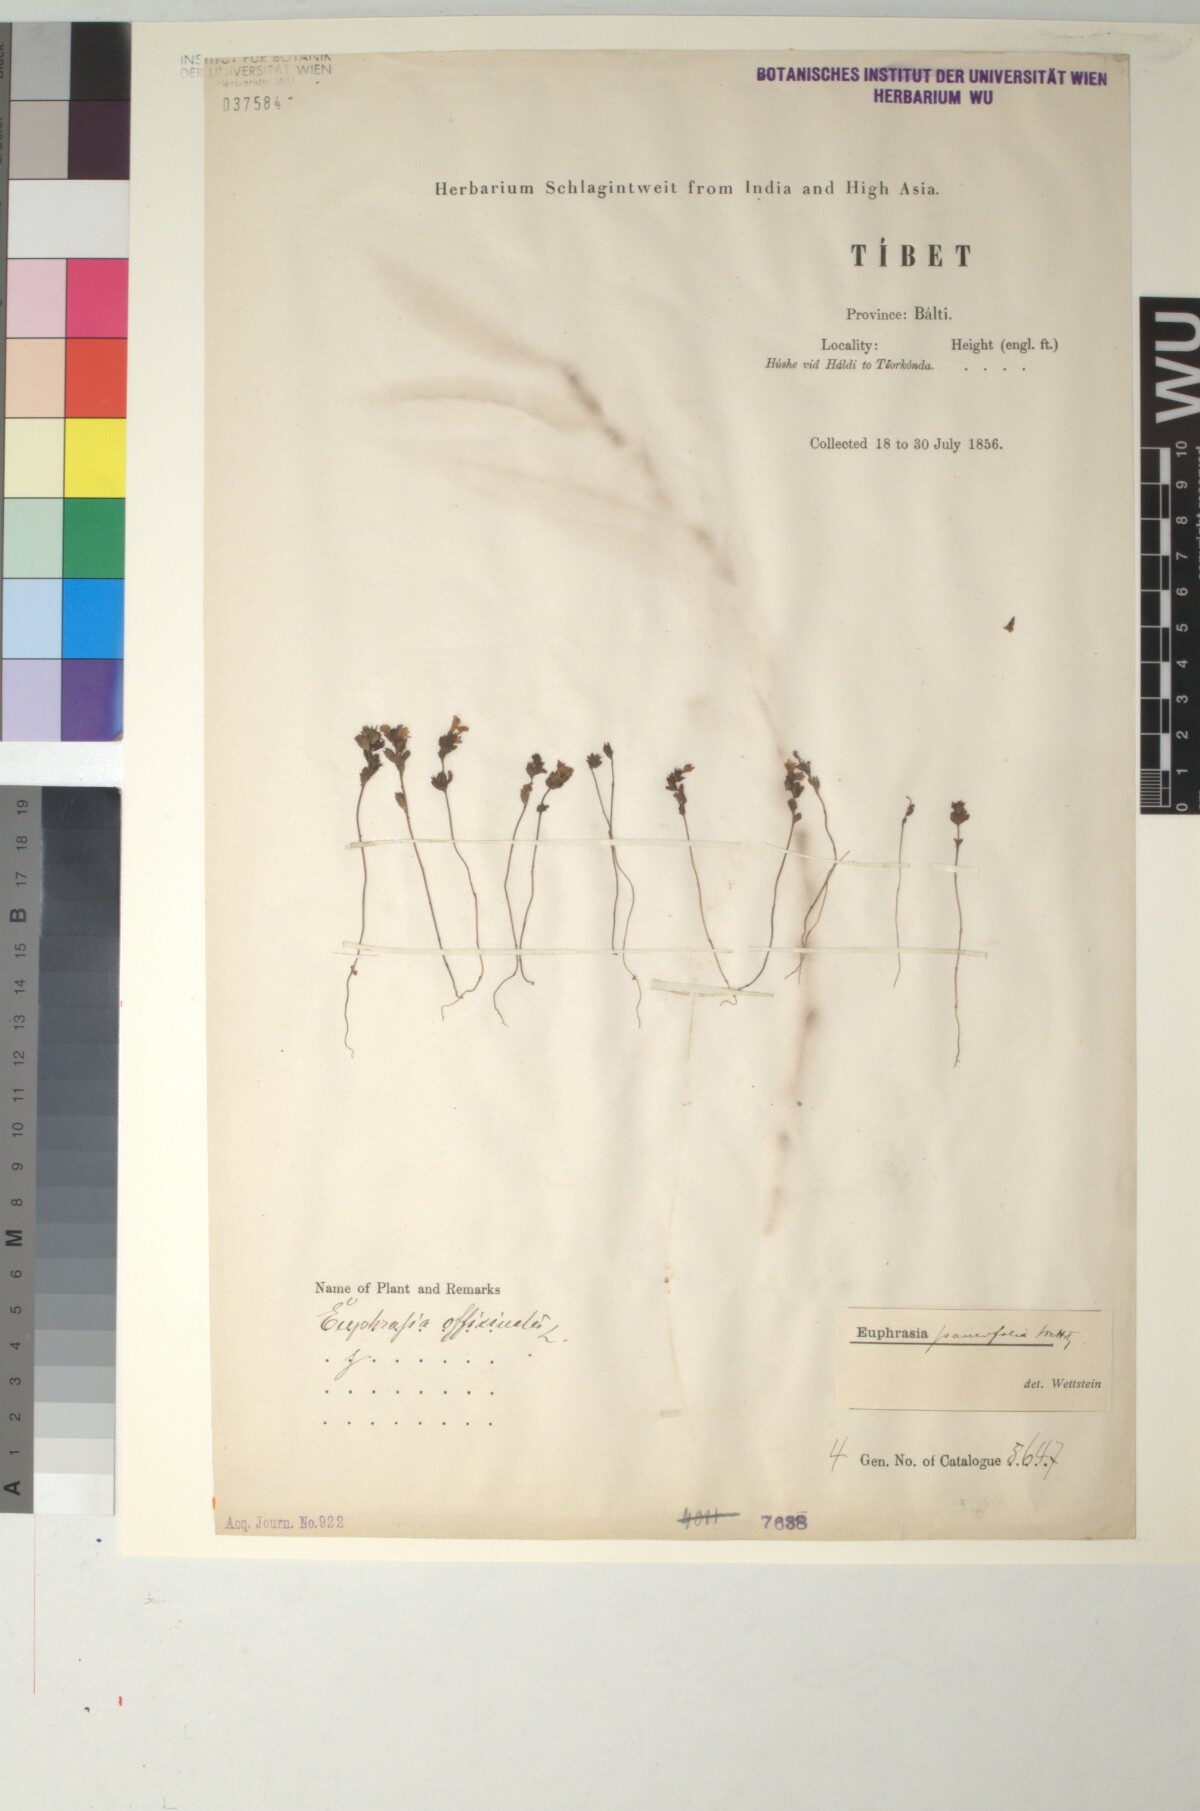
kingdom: Plantae
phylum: Tracheophyta
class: Magnoliopsida
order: Lamiales
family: Orobanchaceae
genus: Euphrasia
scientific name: Euphrasia paucifolia
